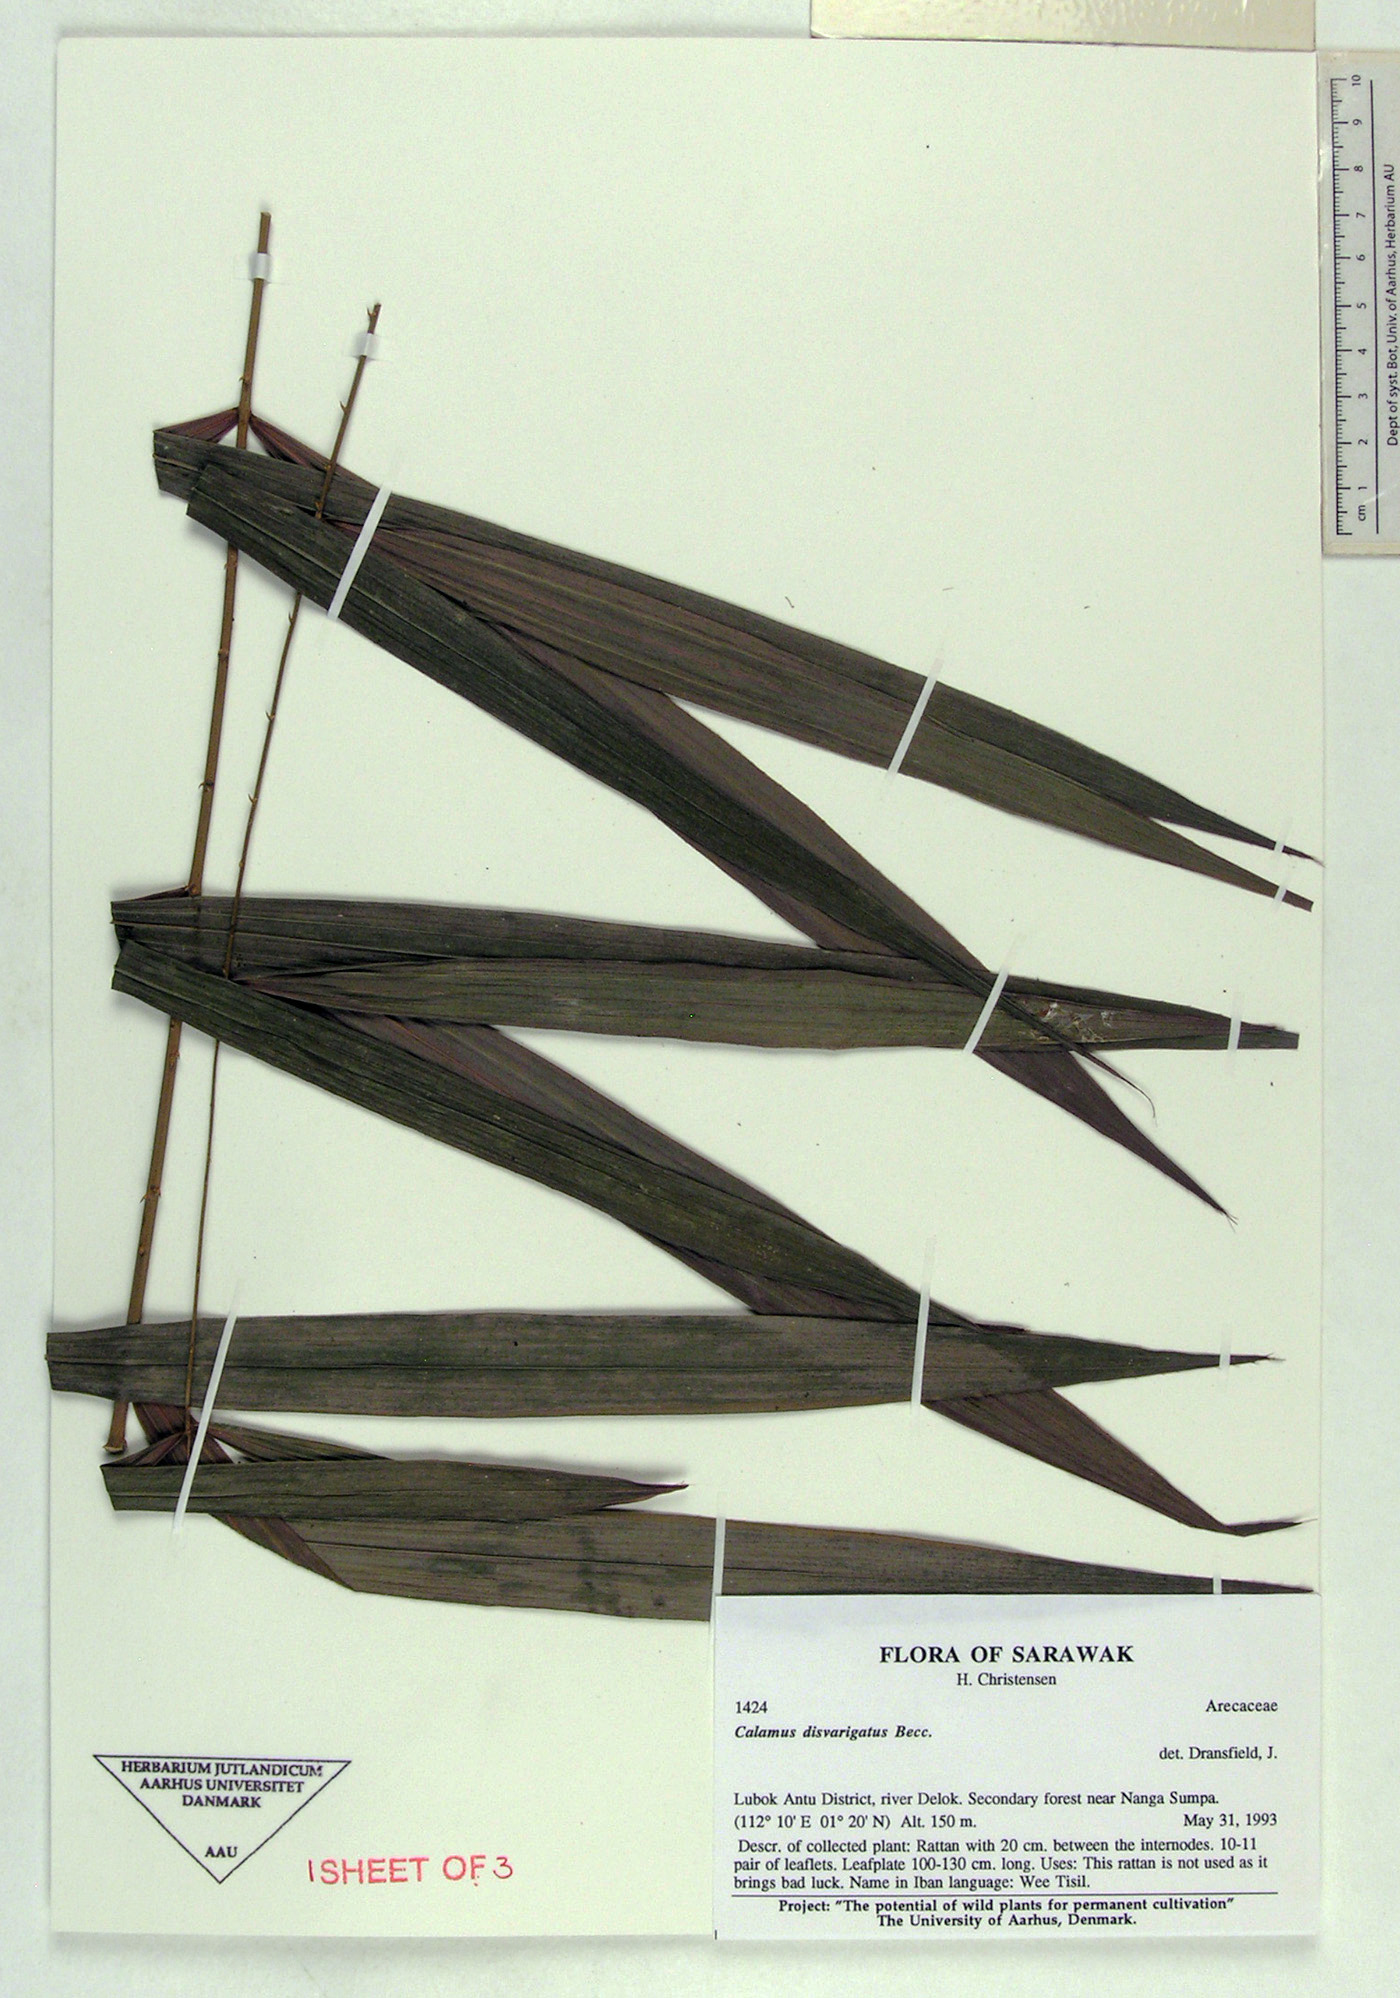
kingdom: Plantae
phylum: Tracheophyta
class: Liliopsida
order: Arecales
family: Arecaceae
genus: Calamus
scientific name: Calamus
